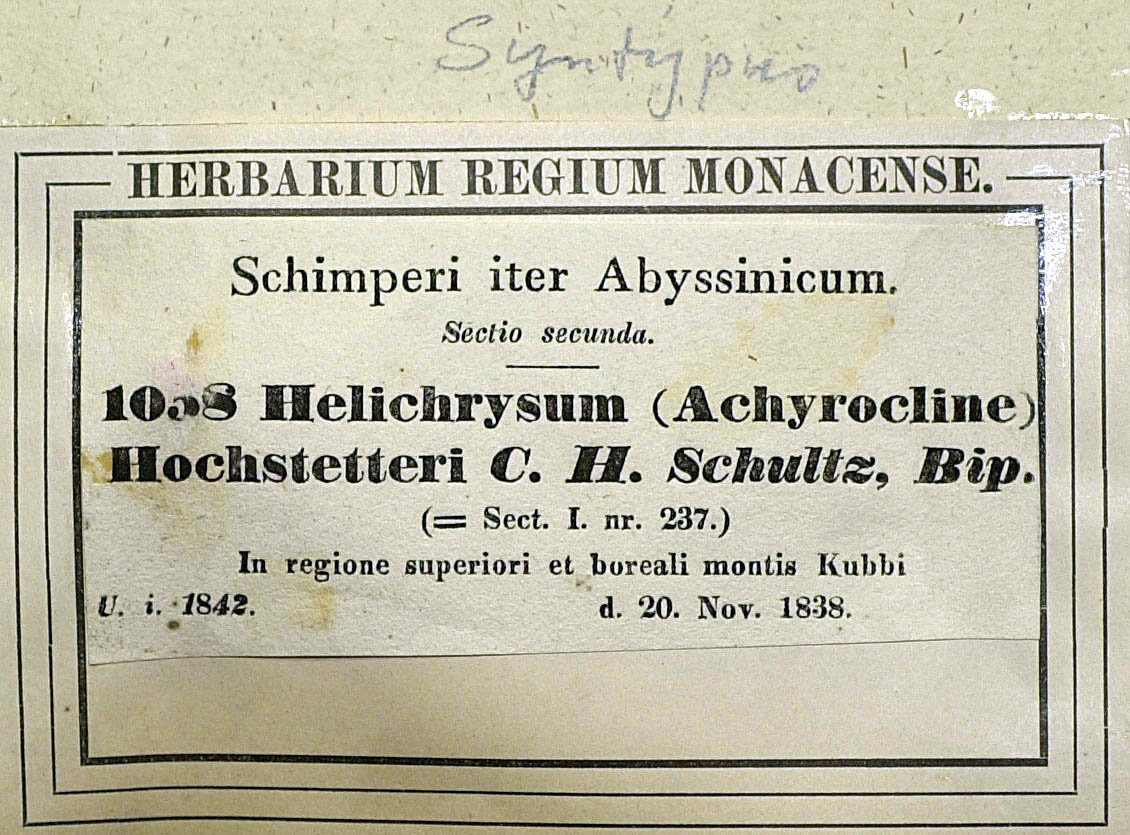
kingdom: Plantae
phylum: Tracheophyta
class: Magnoliopsida
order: Asterales
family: Asteraceae
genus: Helichrysum
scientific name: Helichrysum stenopterum
